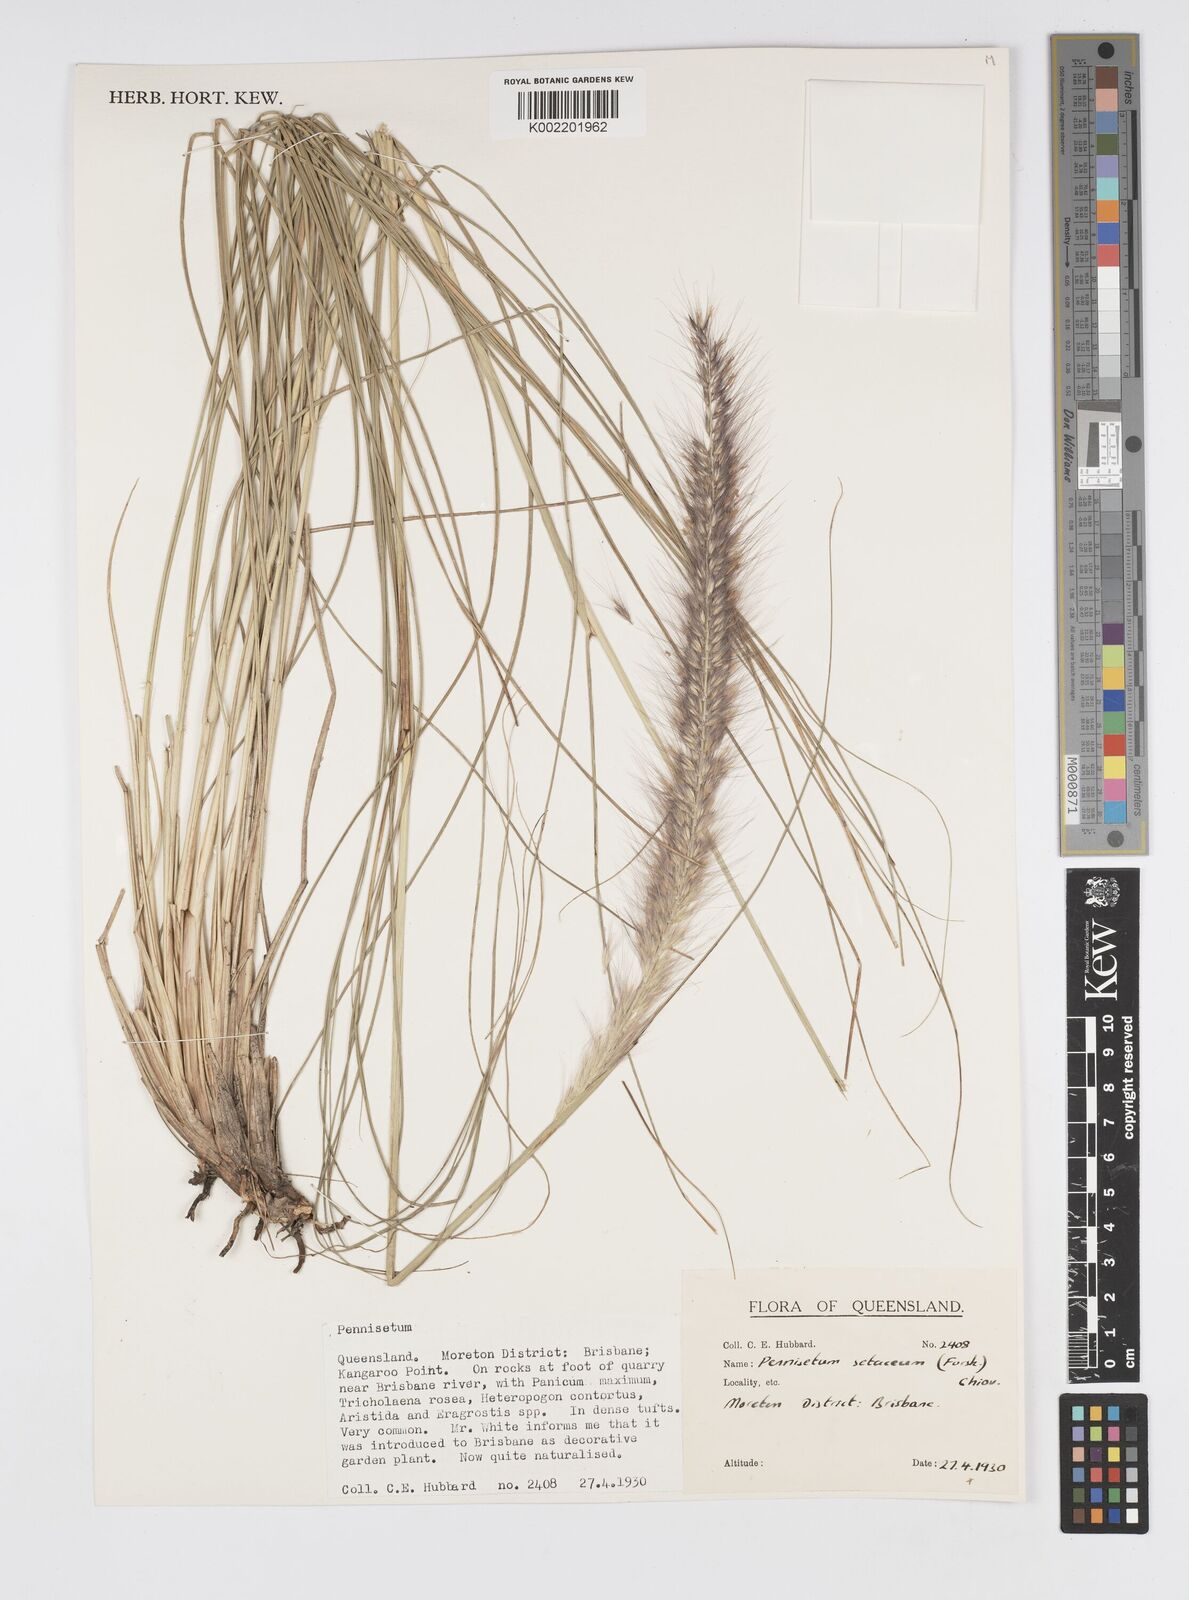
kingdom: Plantae
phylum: Tracheophyta
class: Liliopsida
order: Poales
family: Poaceae
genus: Cenchrus
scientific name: Cenchrus setaceus
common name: Crimson fountaingrass
